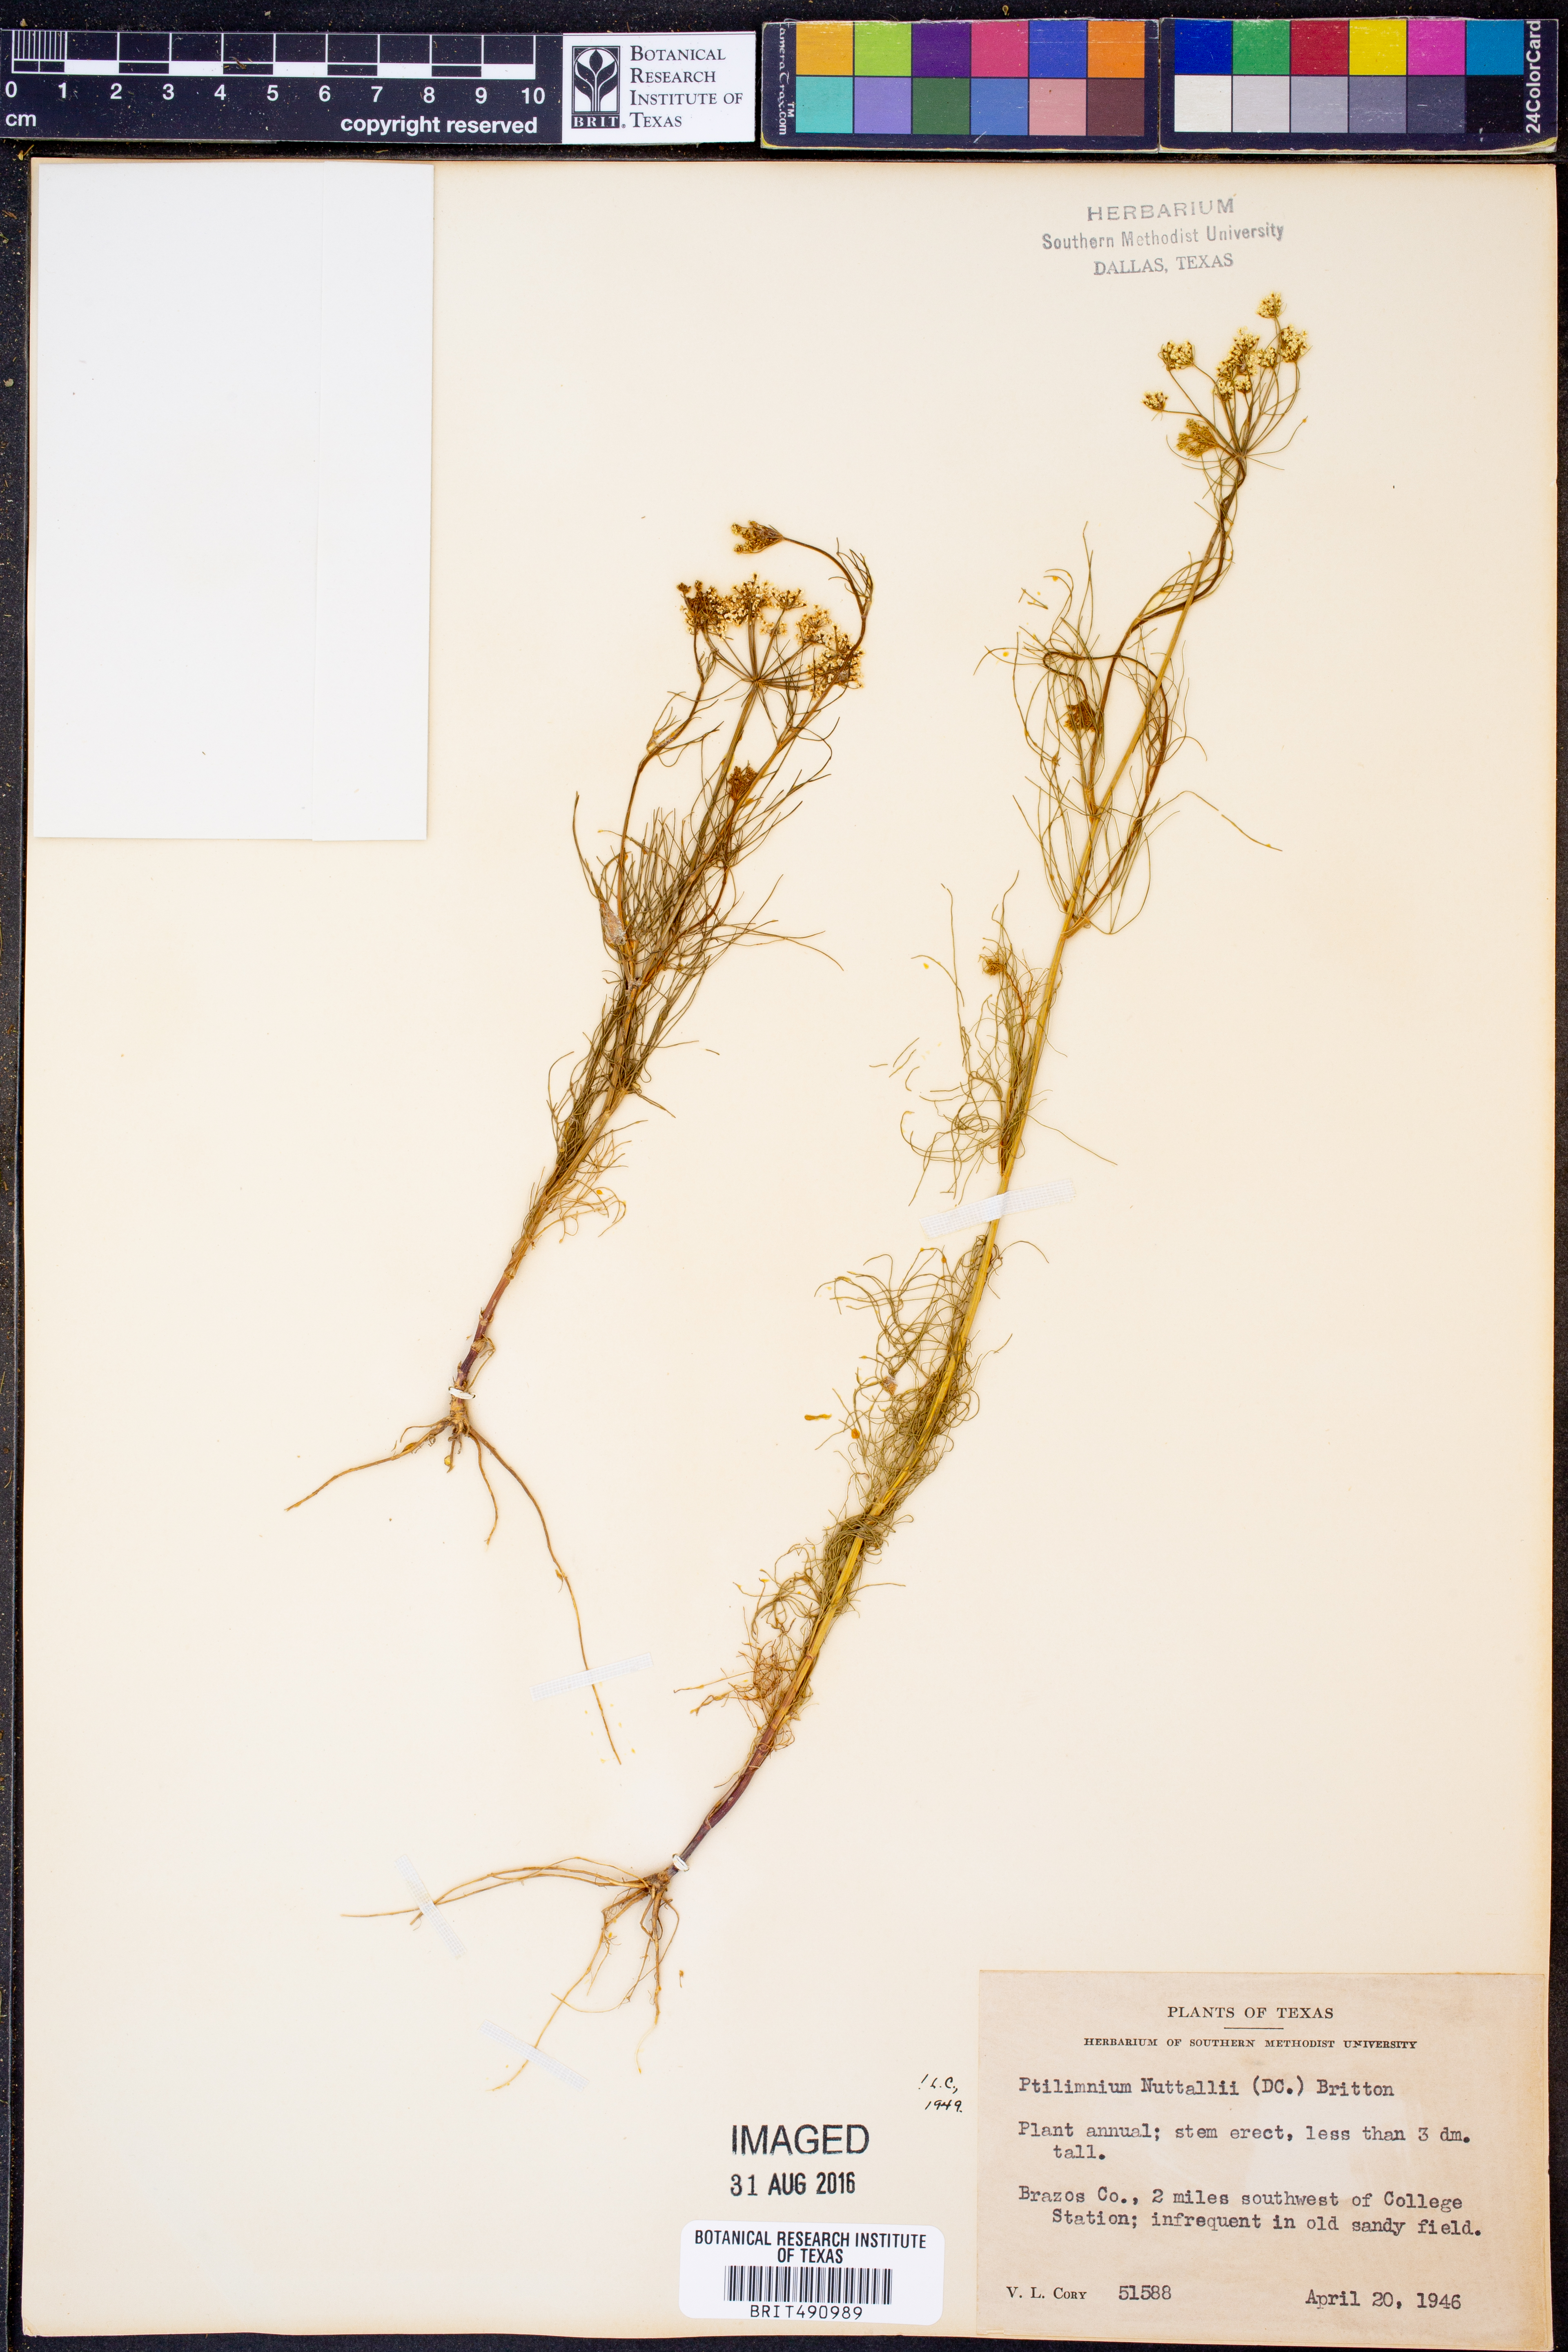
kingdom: Plantae
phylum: Tracheophyta
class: Magnoliopsida
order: Apiales
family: Apiaceae
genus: Ptilimnium
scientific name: Ptilimnium nuttallii
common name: Ozark bishop's-weed
